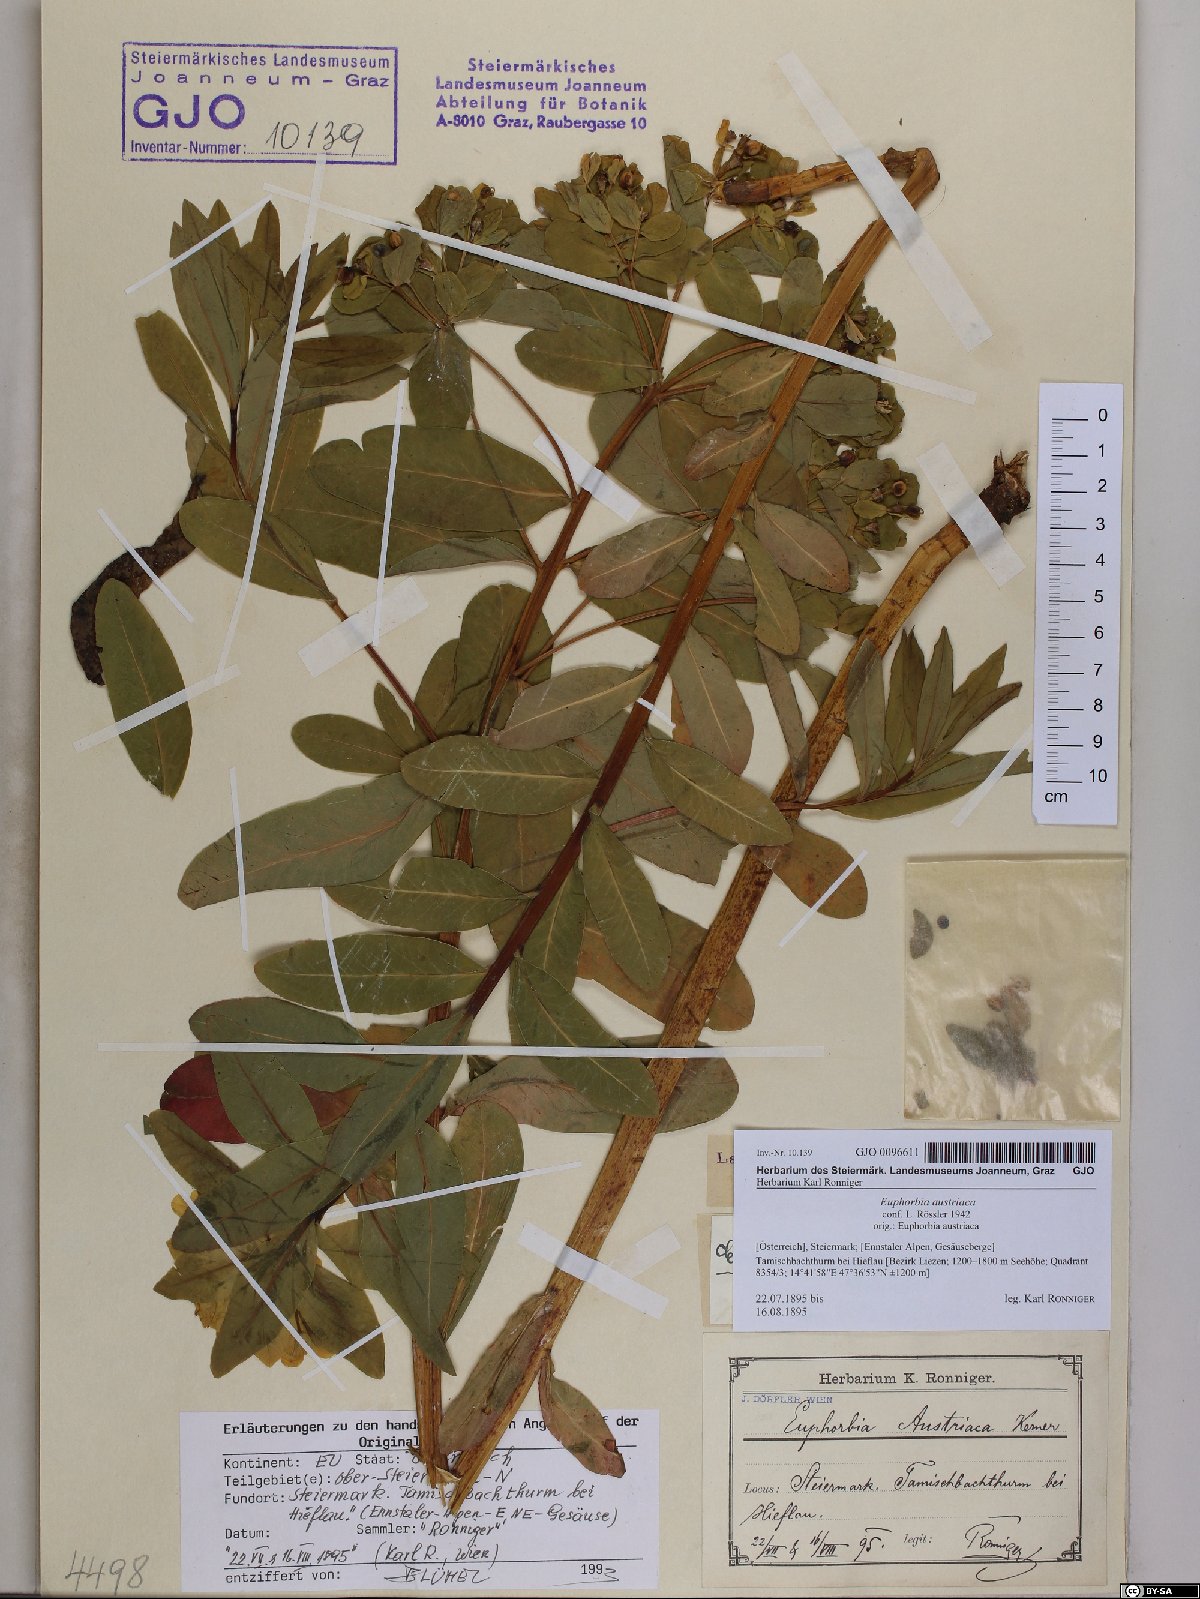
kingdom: Plantae
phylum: Tracheophyta
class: Magnoliopsida
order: Malpighiales
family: Euphorbiaceae
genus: Euphorbia
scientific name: Euphorbia austriaca
